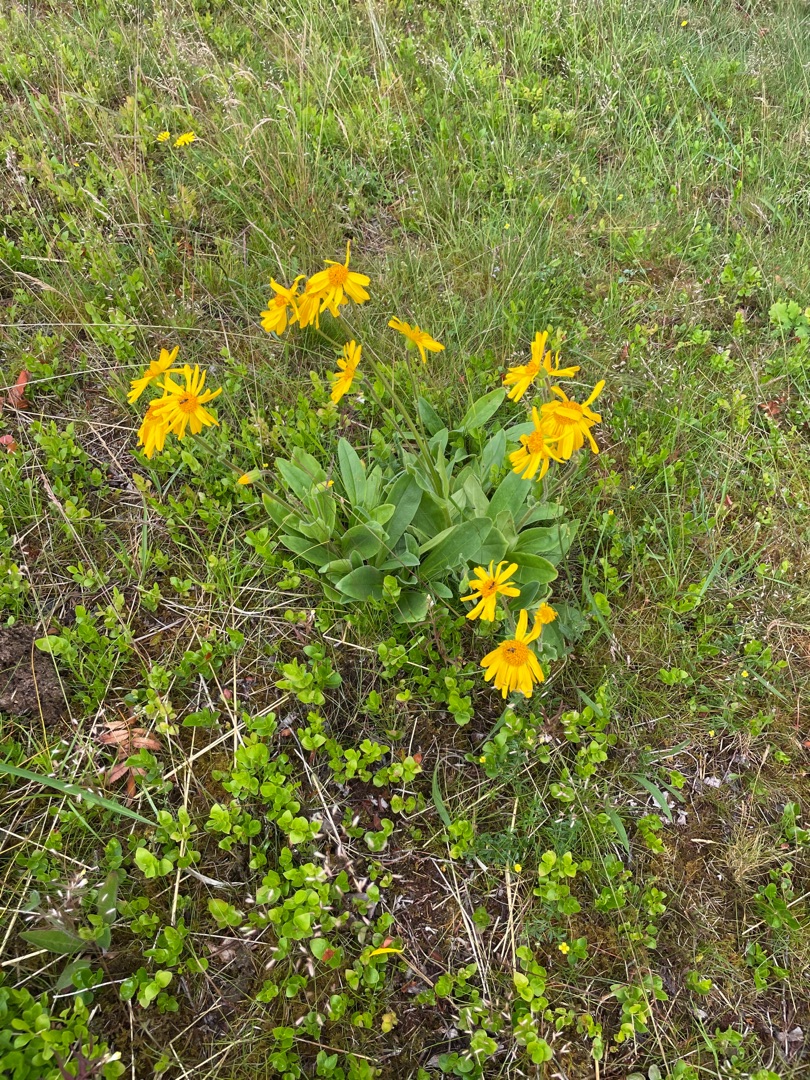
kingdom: Plantae
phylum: Tracheophyta
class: Magnoliopsida
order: Asterales
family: Asteraceae
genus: Arnica
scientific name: Arnica montana
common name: Guldblomme
